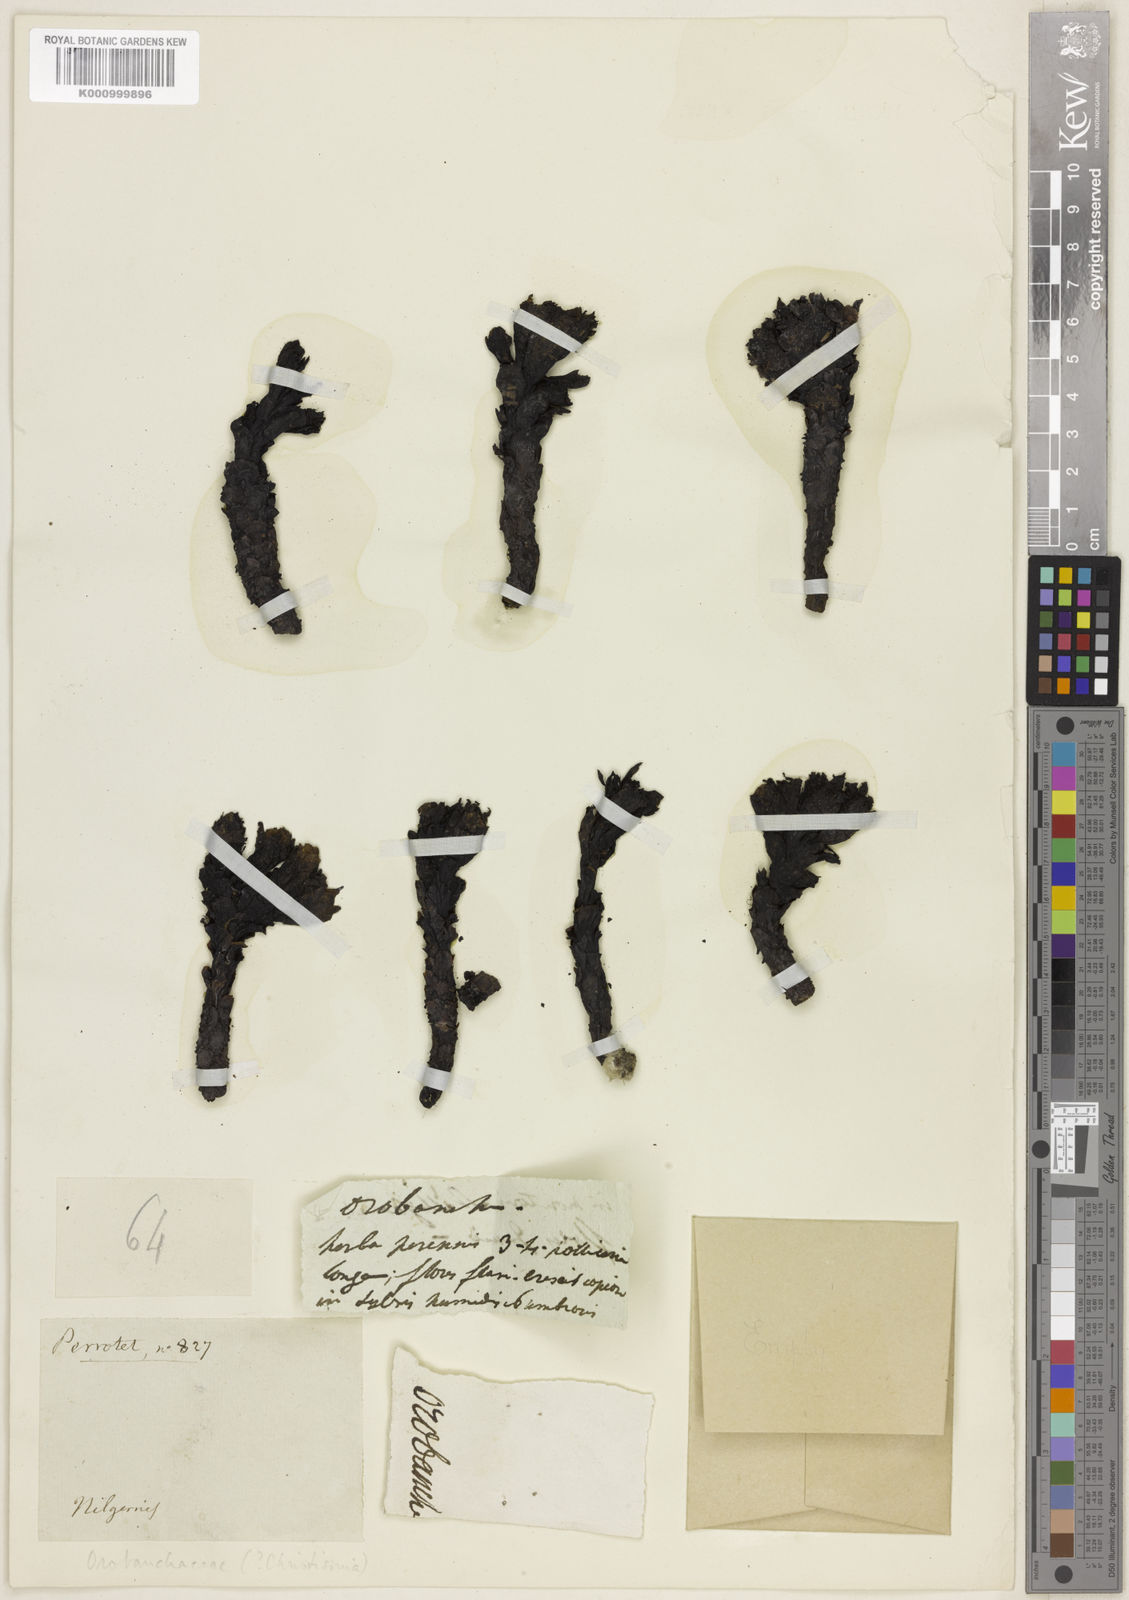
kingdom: Plantae
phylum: Tracheophyta
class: Magnoliopsida
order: Lamiales
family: Orobanchaceae
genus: Christisonia
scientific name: Christisonia bicolor
